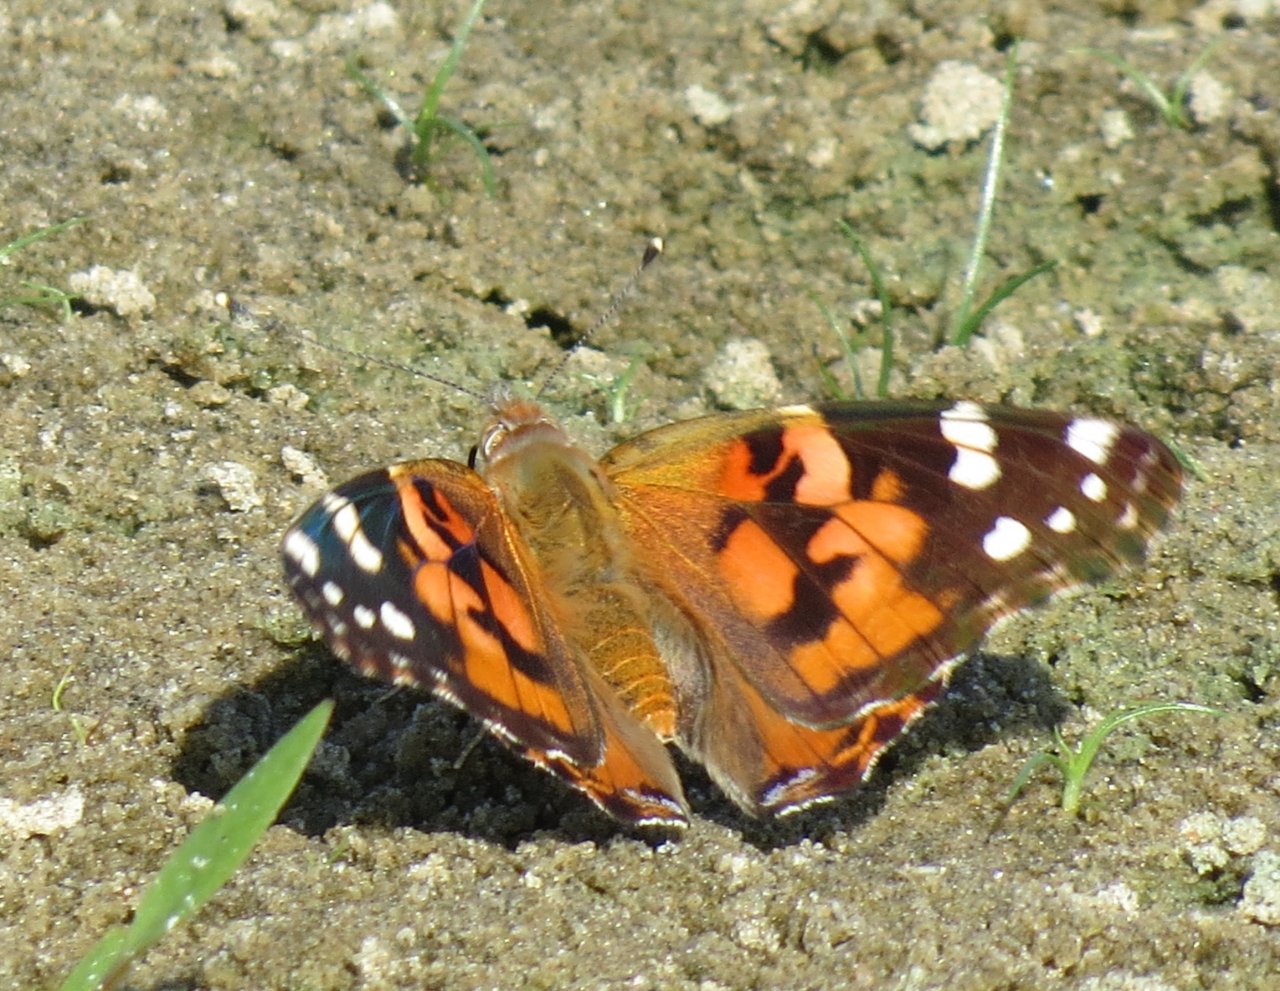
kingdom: Animalia
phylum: Arthropoda
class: Insecta
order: Lepidoptera
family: Nymphalidae
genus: Vanessa
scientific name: Vanessa cardui
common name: Painted Lady
